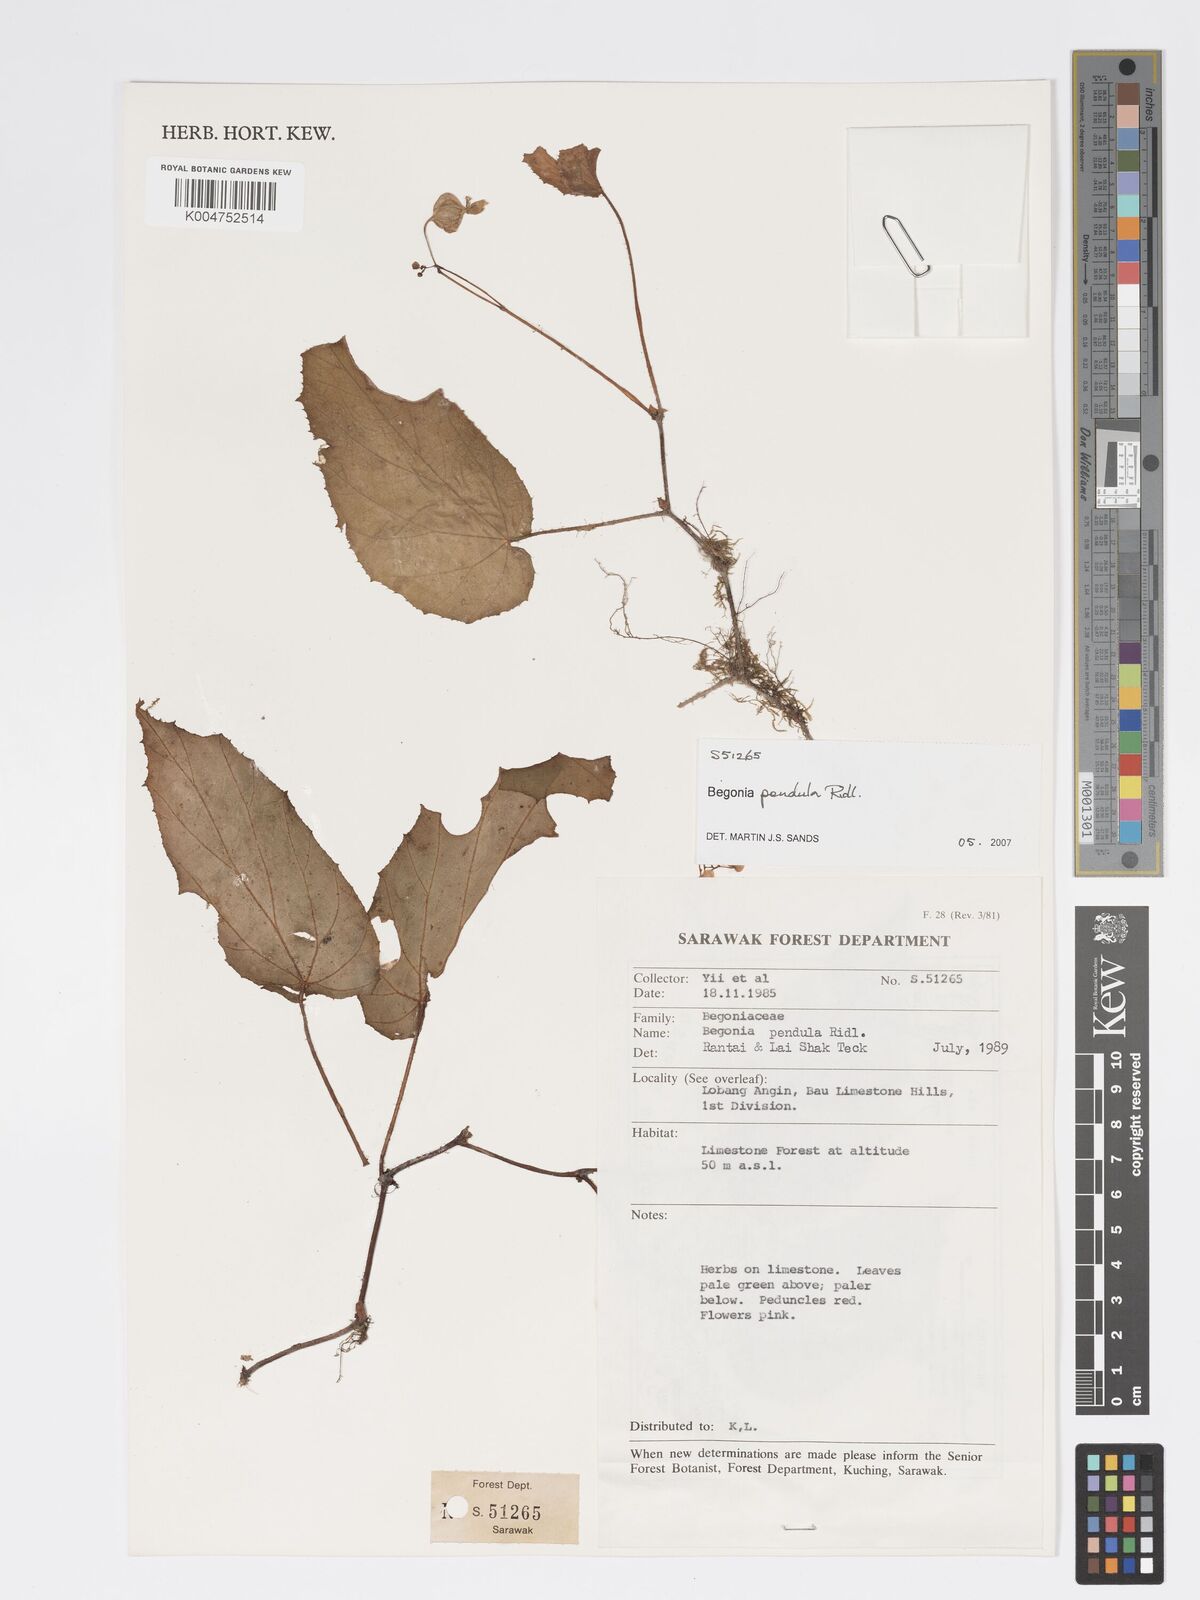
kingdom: Plantae
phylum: Tracheophyta
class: Magnoliopsida
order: Cucurbitales
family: Begoniaceae
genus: Begonia
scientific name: Begonia
